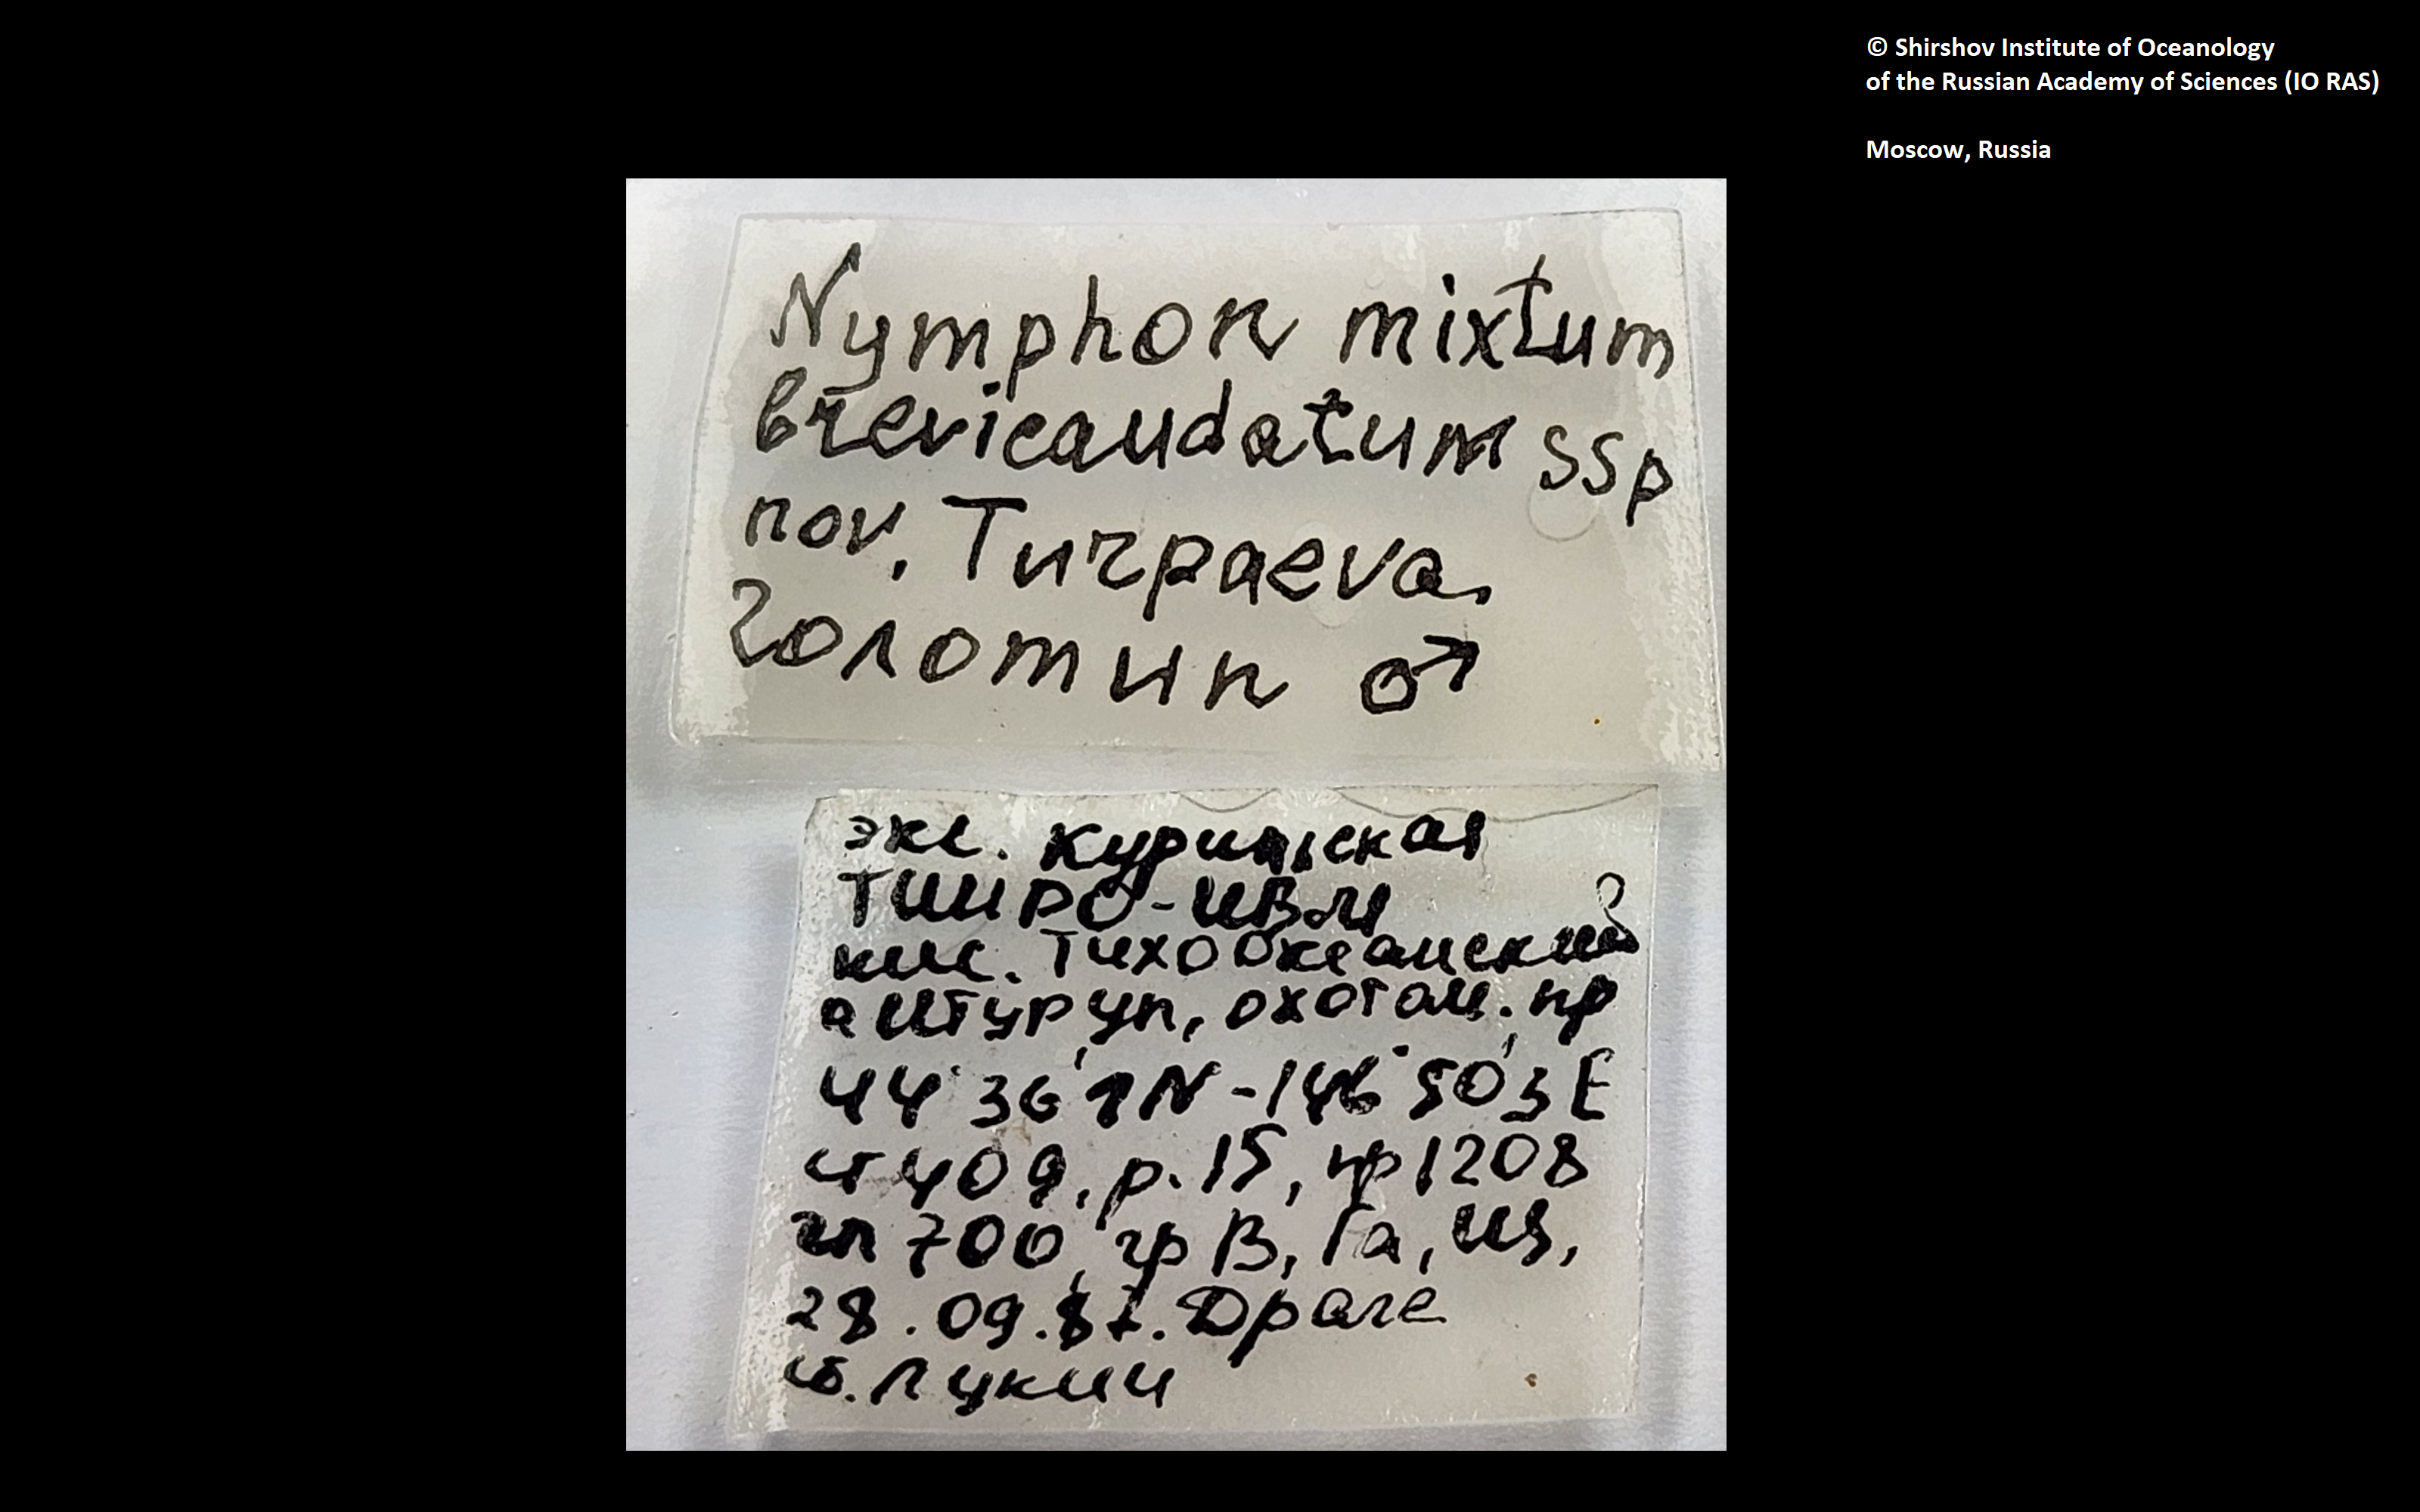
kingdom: Animalia
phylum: Arthropoda
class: Pycnogonida
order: Pantopoda
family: Nymphonidae
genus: Nymphon
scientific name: Nymphon grossipes
